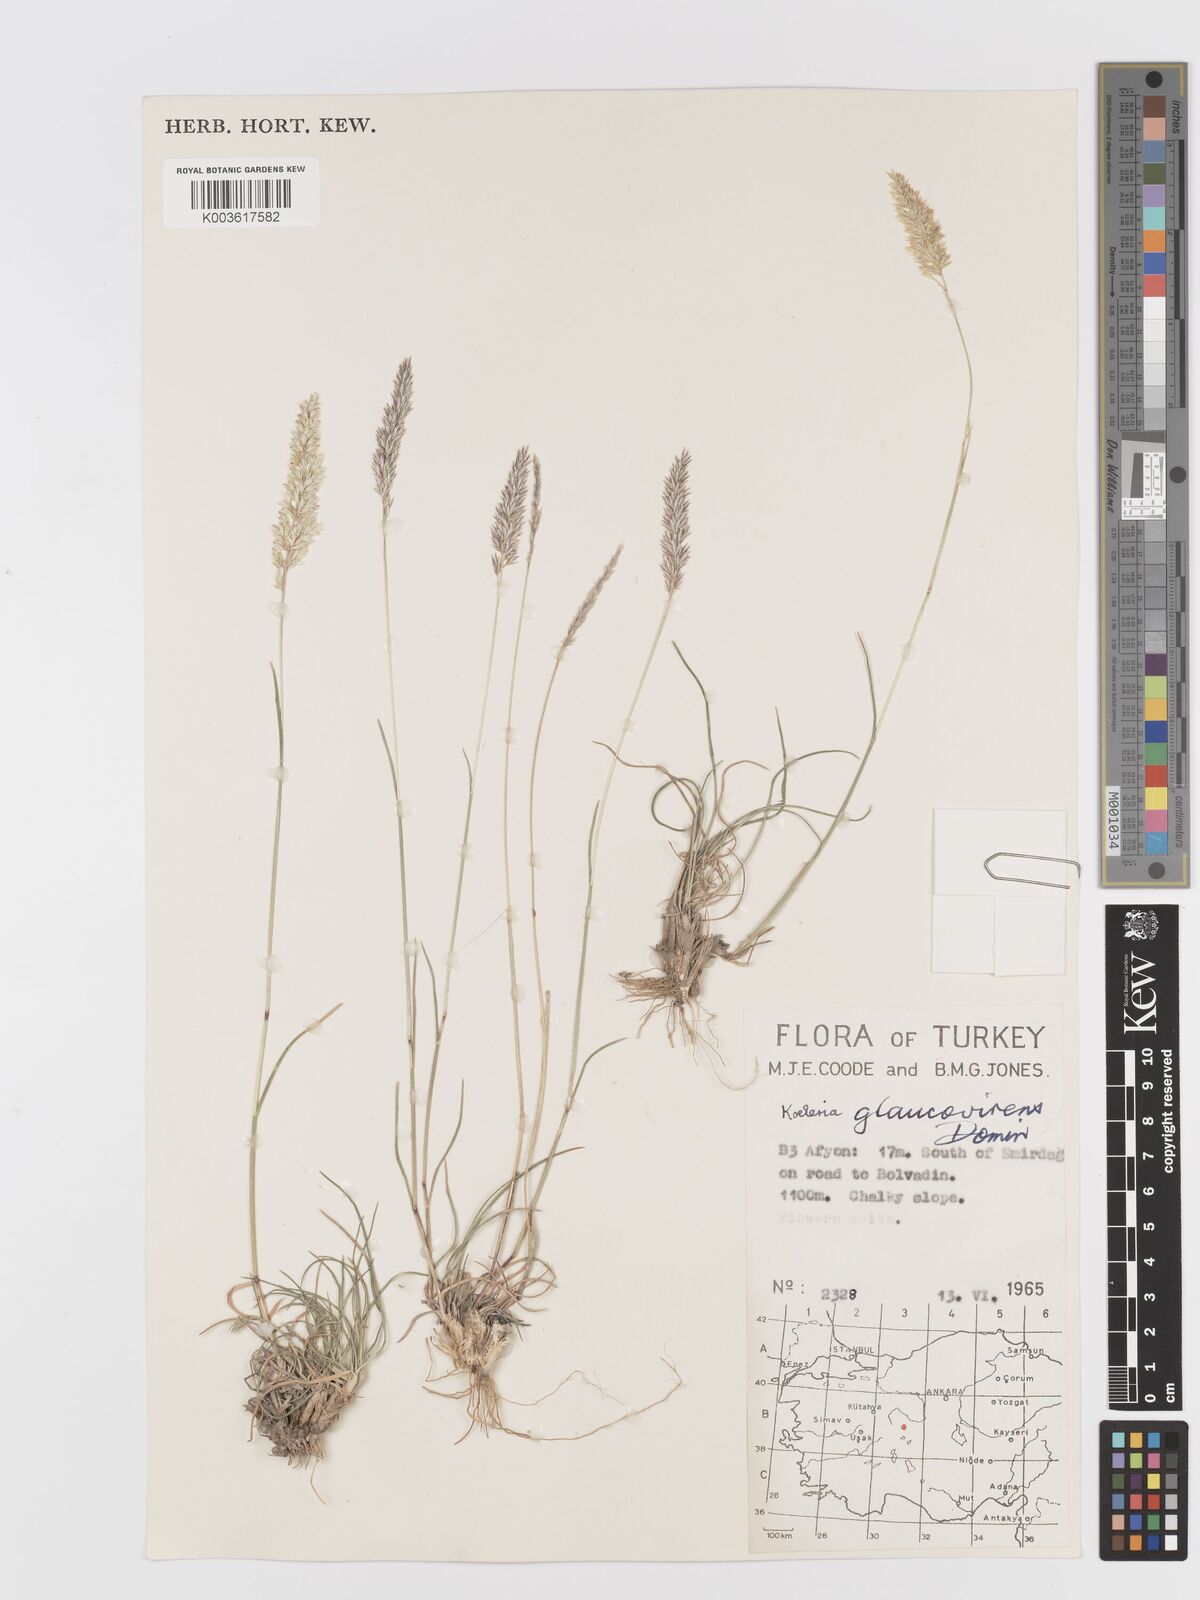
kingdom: Plantae
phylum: Tracheophyta
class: Liliopsida
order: Poales
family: Poaceae
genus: Koeleria
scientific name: Koeleria macrantha
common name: Crested hair-grass
